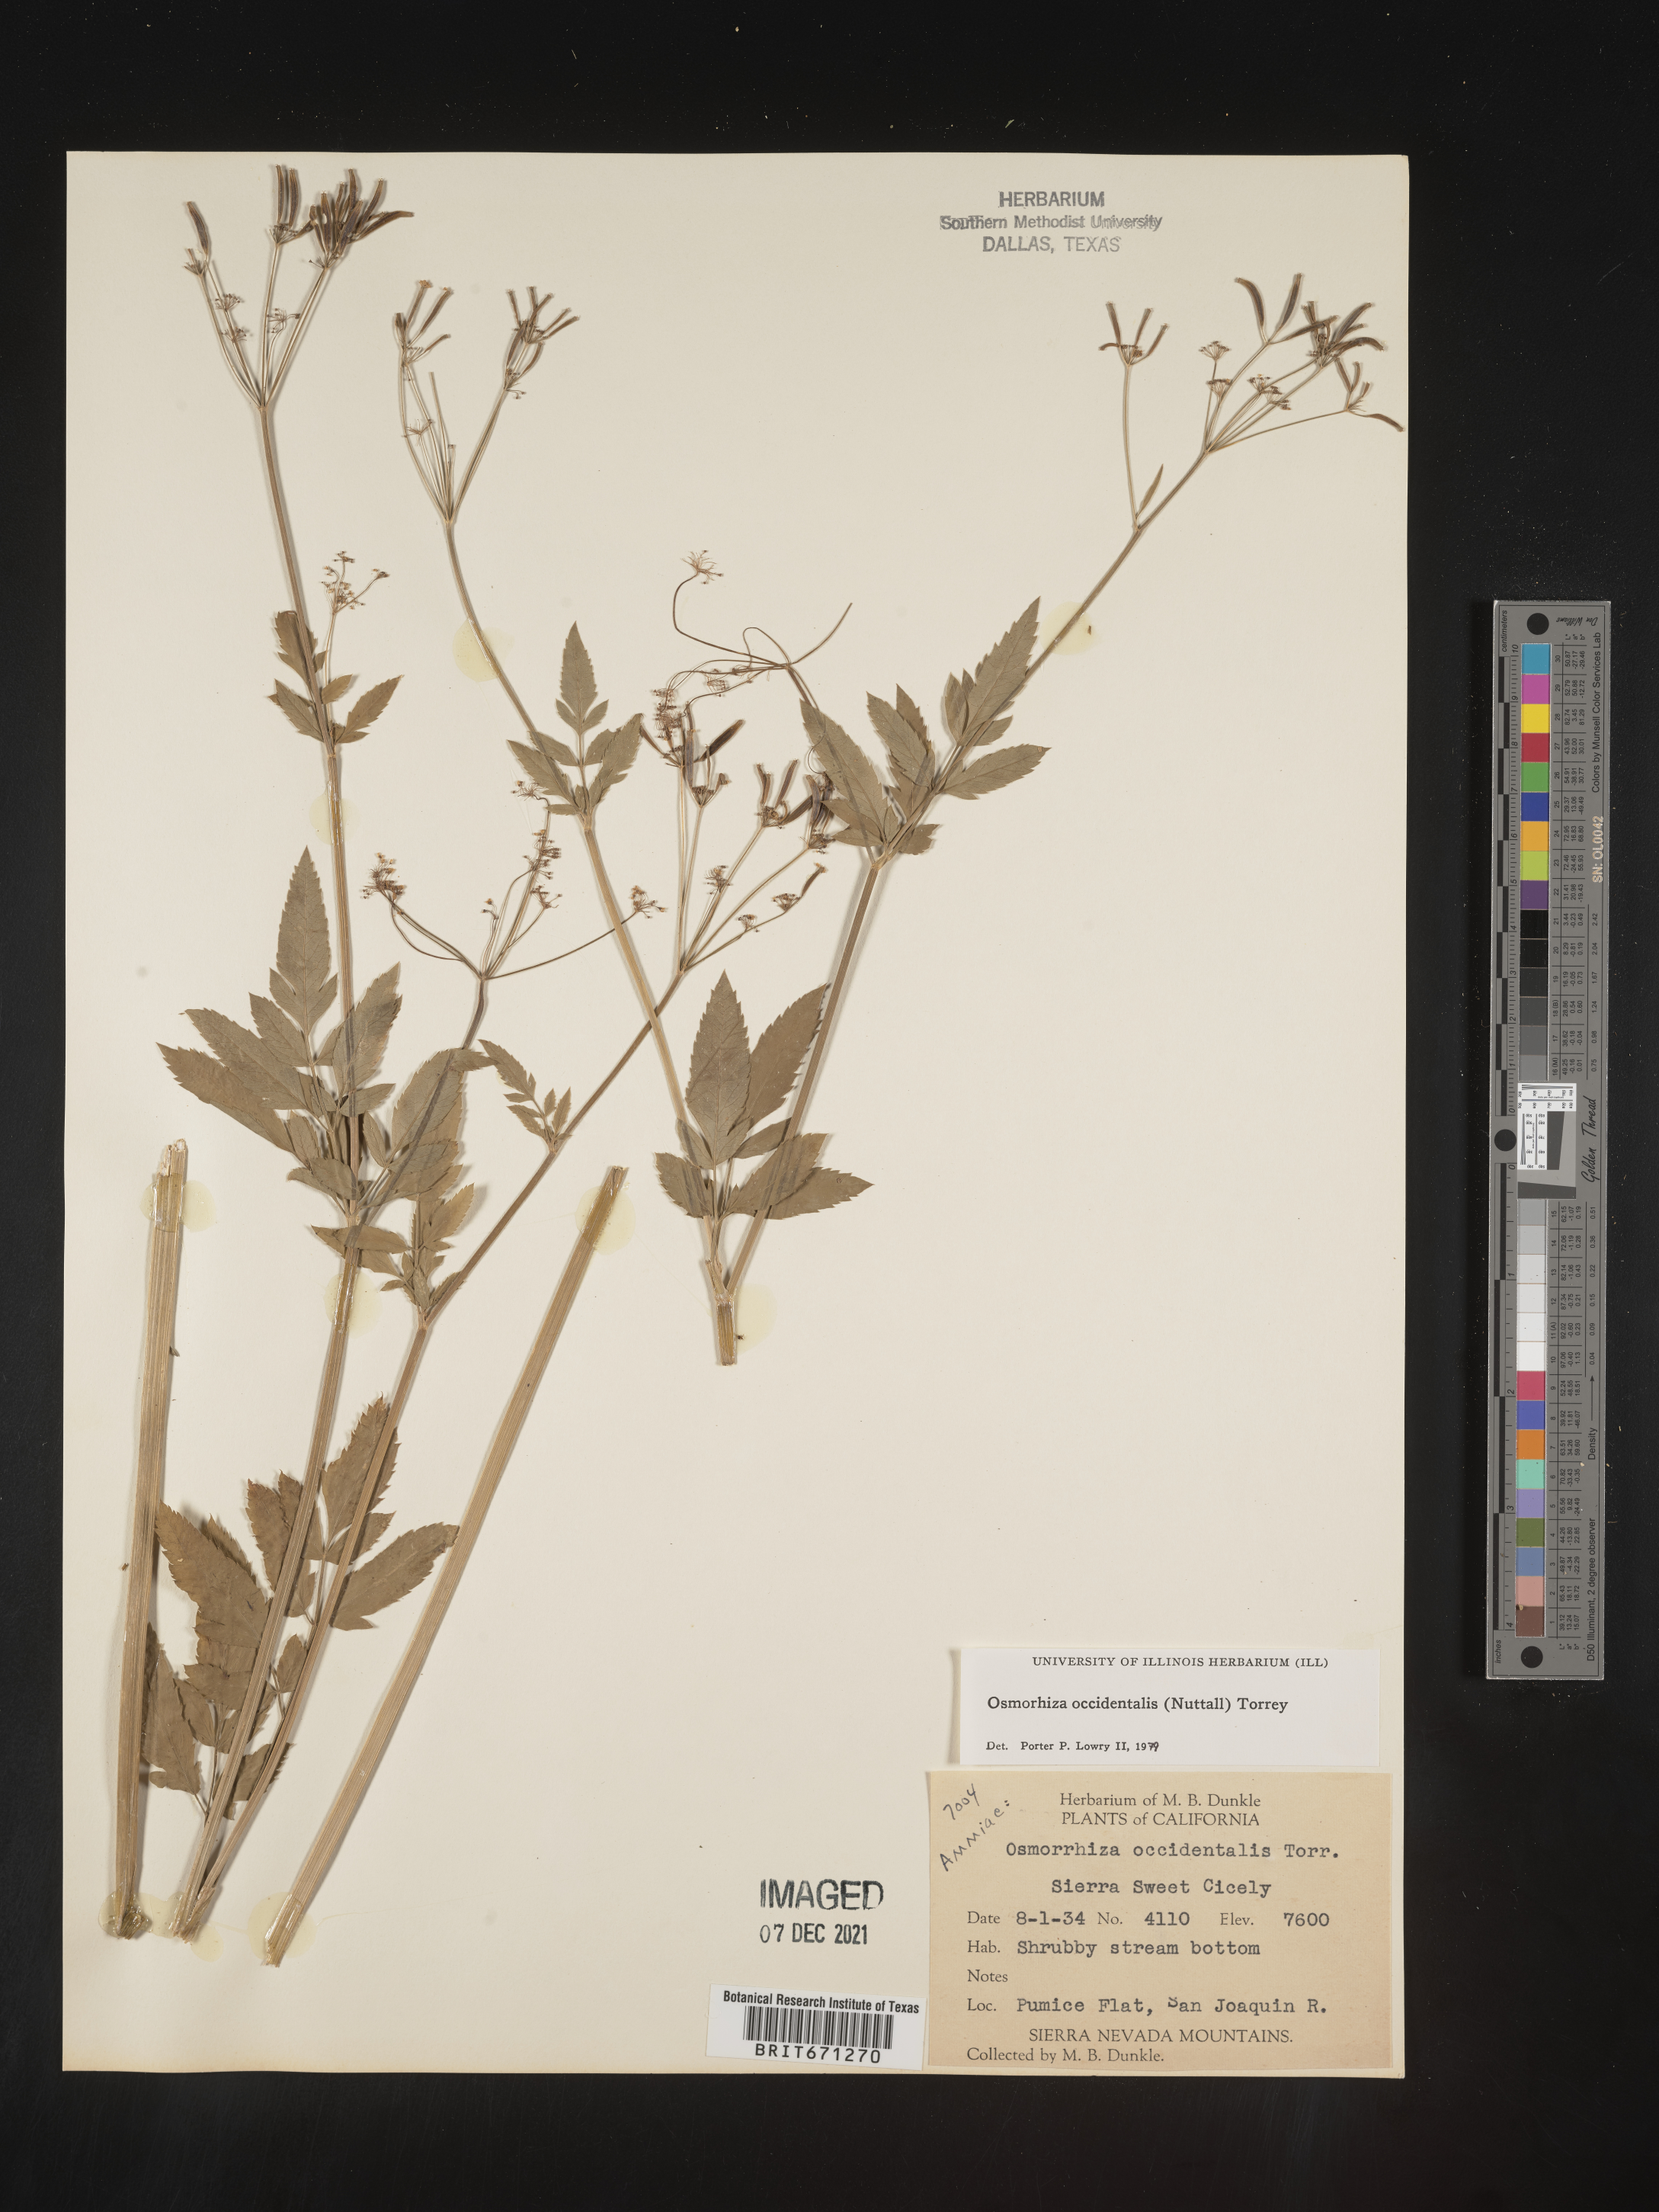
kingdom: Plantae
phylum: Tracheophyta
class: Magnoliopsida
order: Apiales
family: Apiaceae
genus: Osmorhiza
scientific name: Osmorhiza occidentalis
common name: Western sweet cicely
